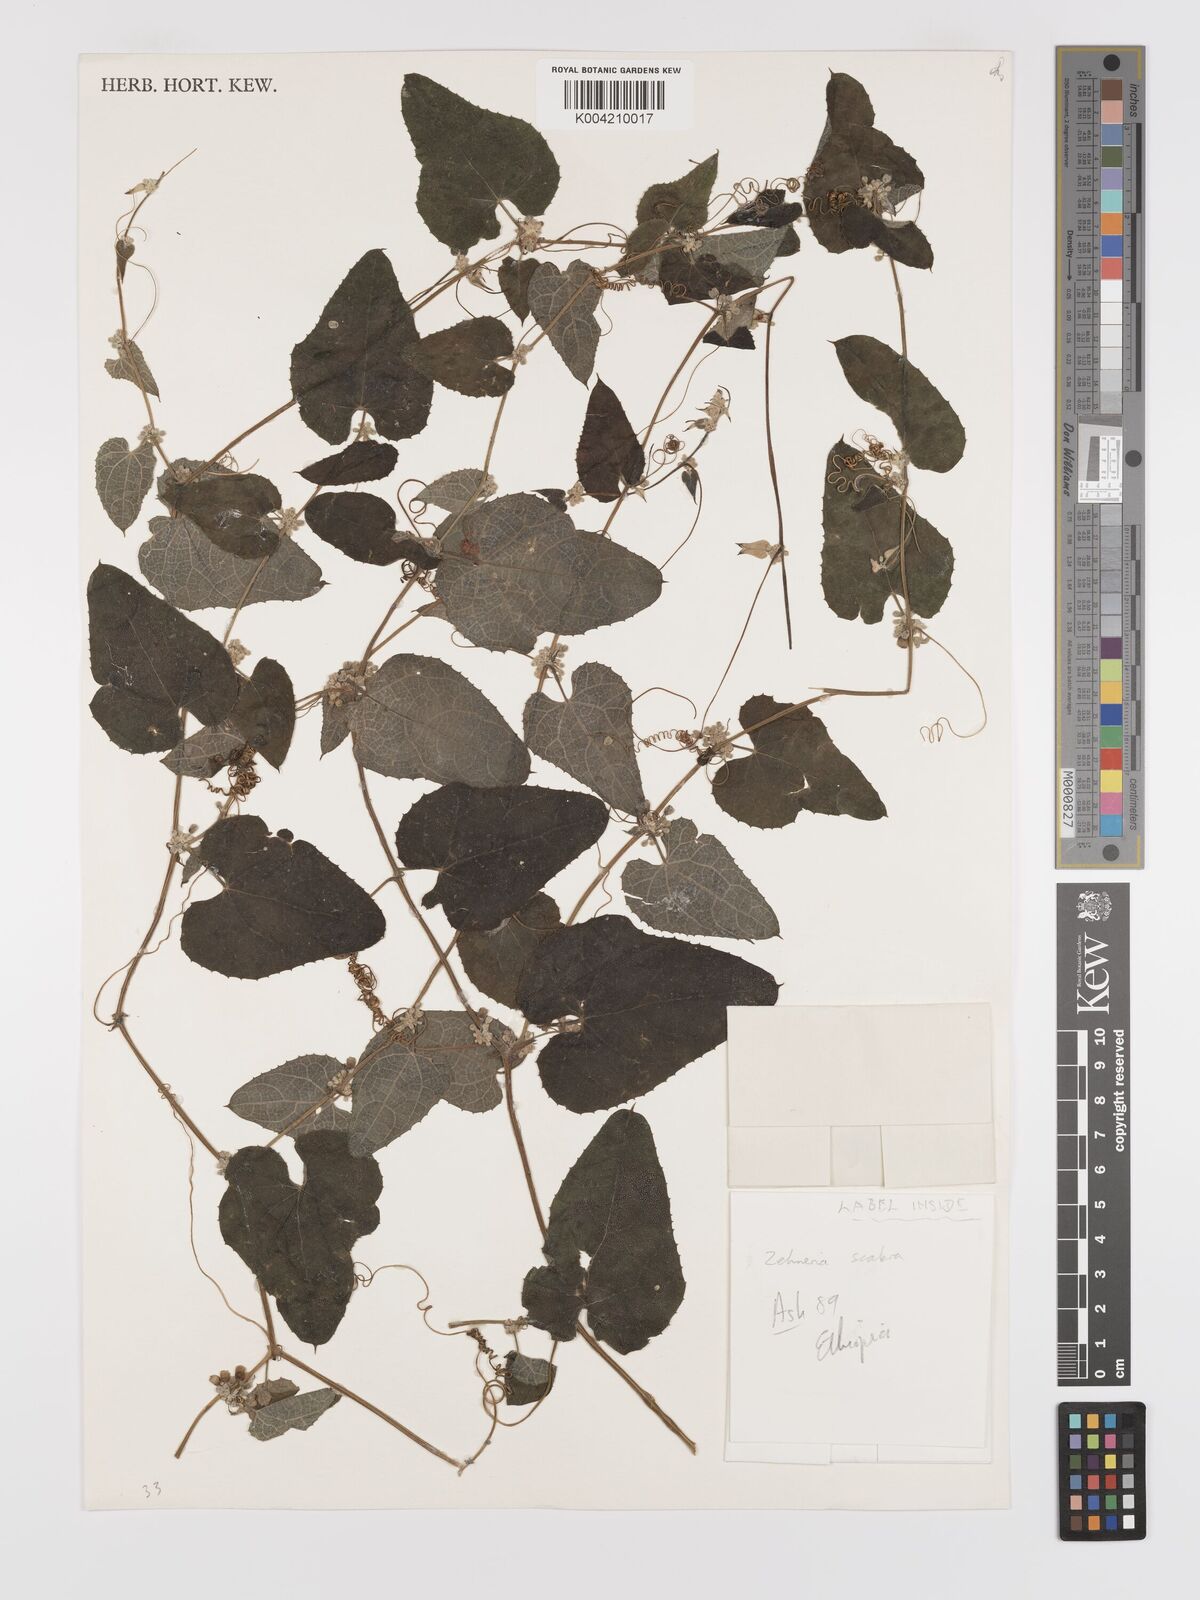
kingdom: Plantae
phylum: Tracheophyta
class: Magnoliopsida
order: Cucurbitales
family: Cucurbitaceae
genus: Zehneria
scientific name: Zehneria scabra
